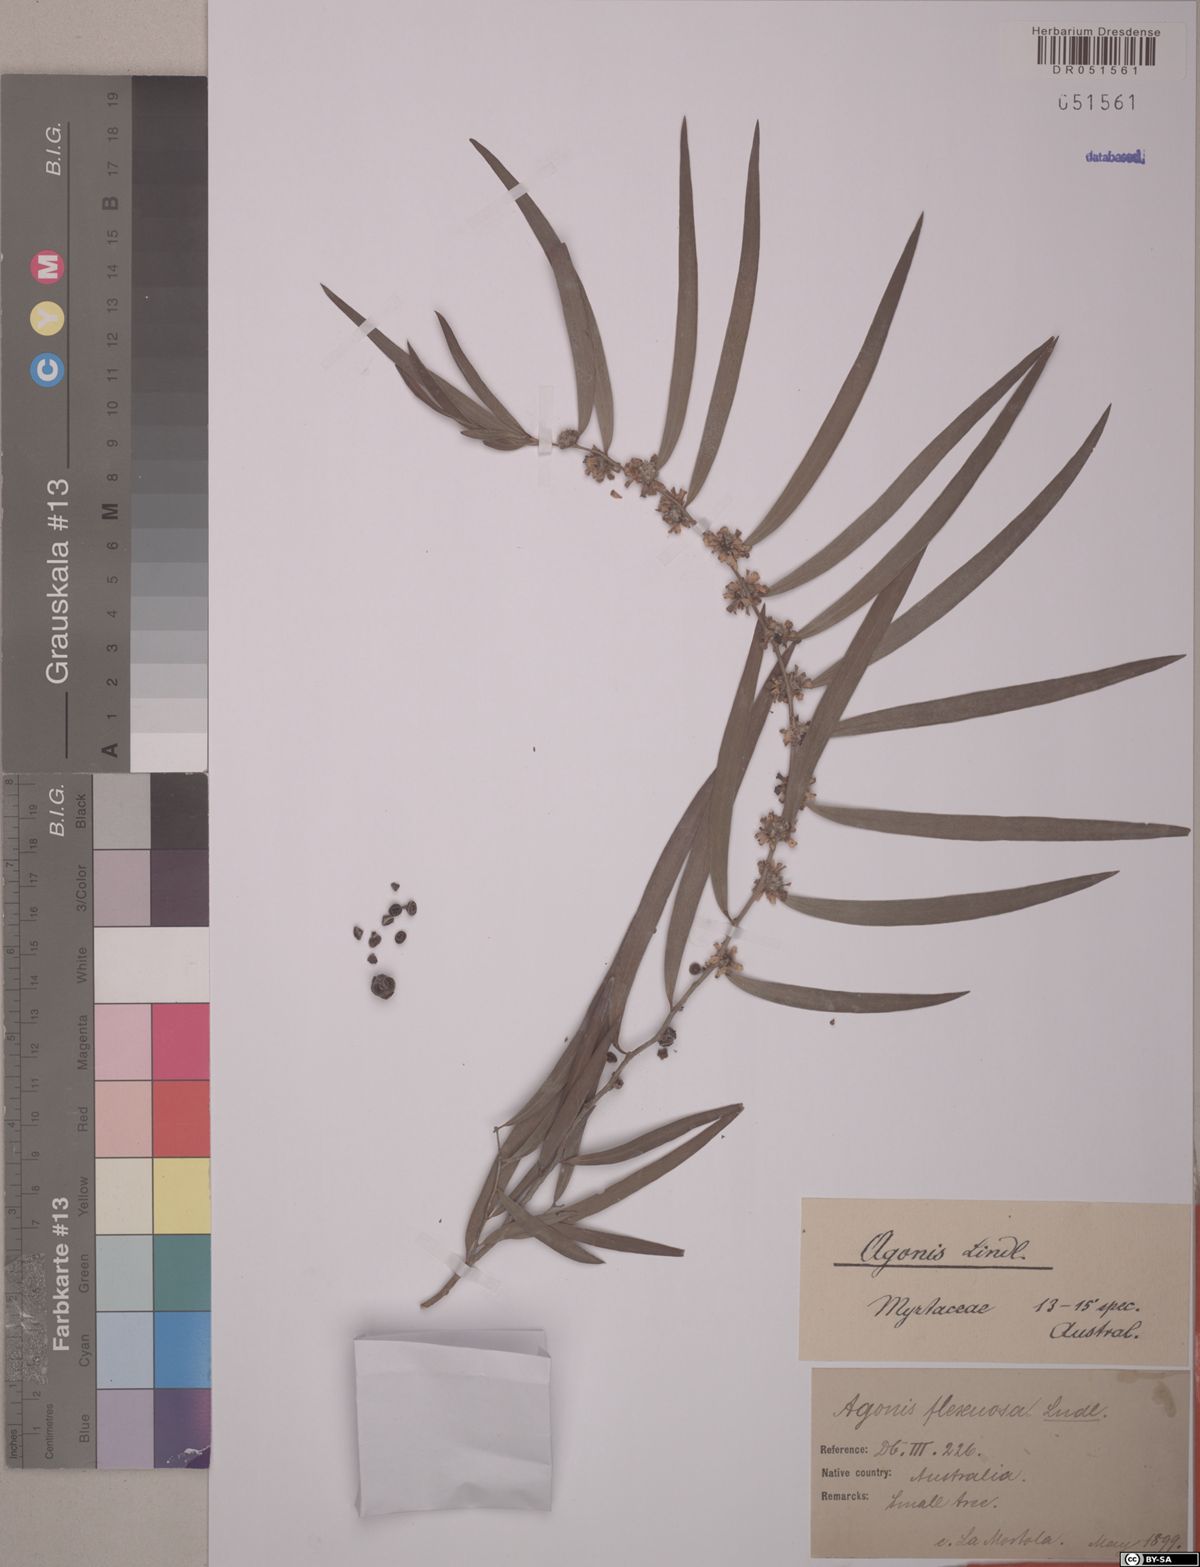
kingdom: Plantae
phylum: Tracheophyta
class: Magnoliopsida
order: Myrtales
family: Myrtaceae
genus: Agonis
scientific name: Agonis flexuosa
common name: Willow myrtle
